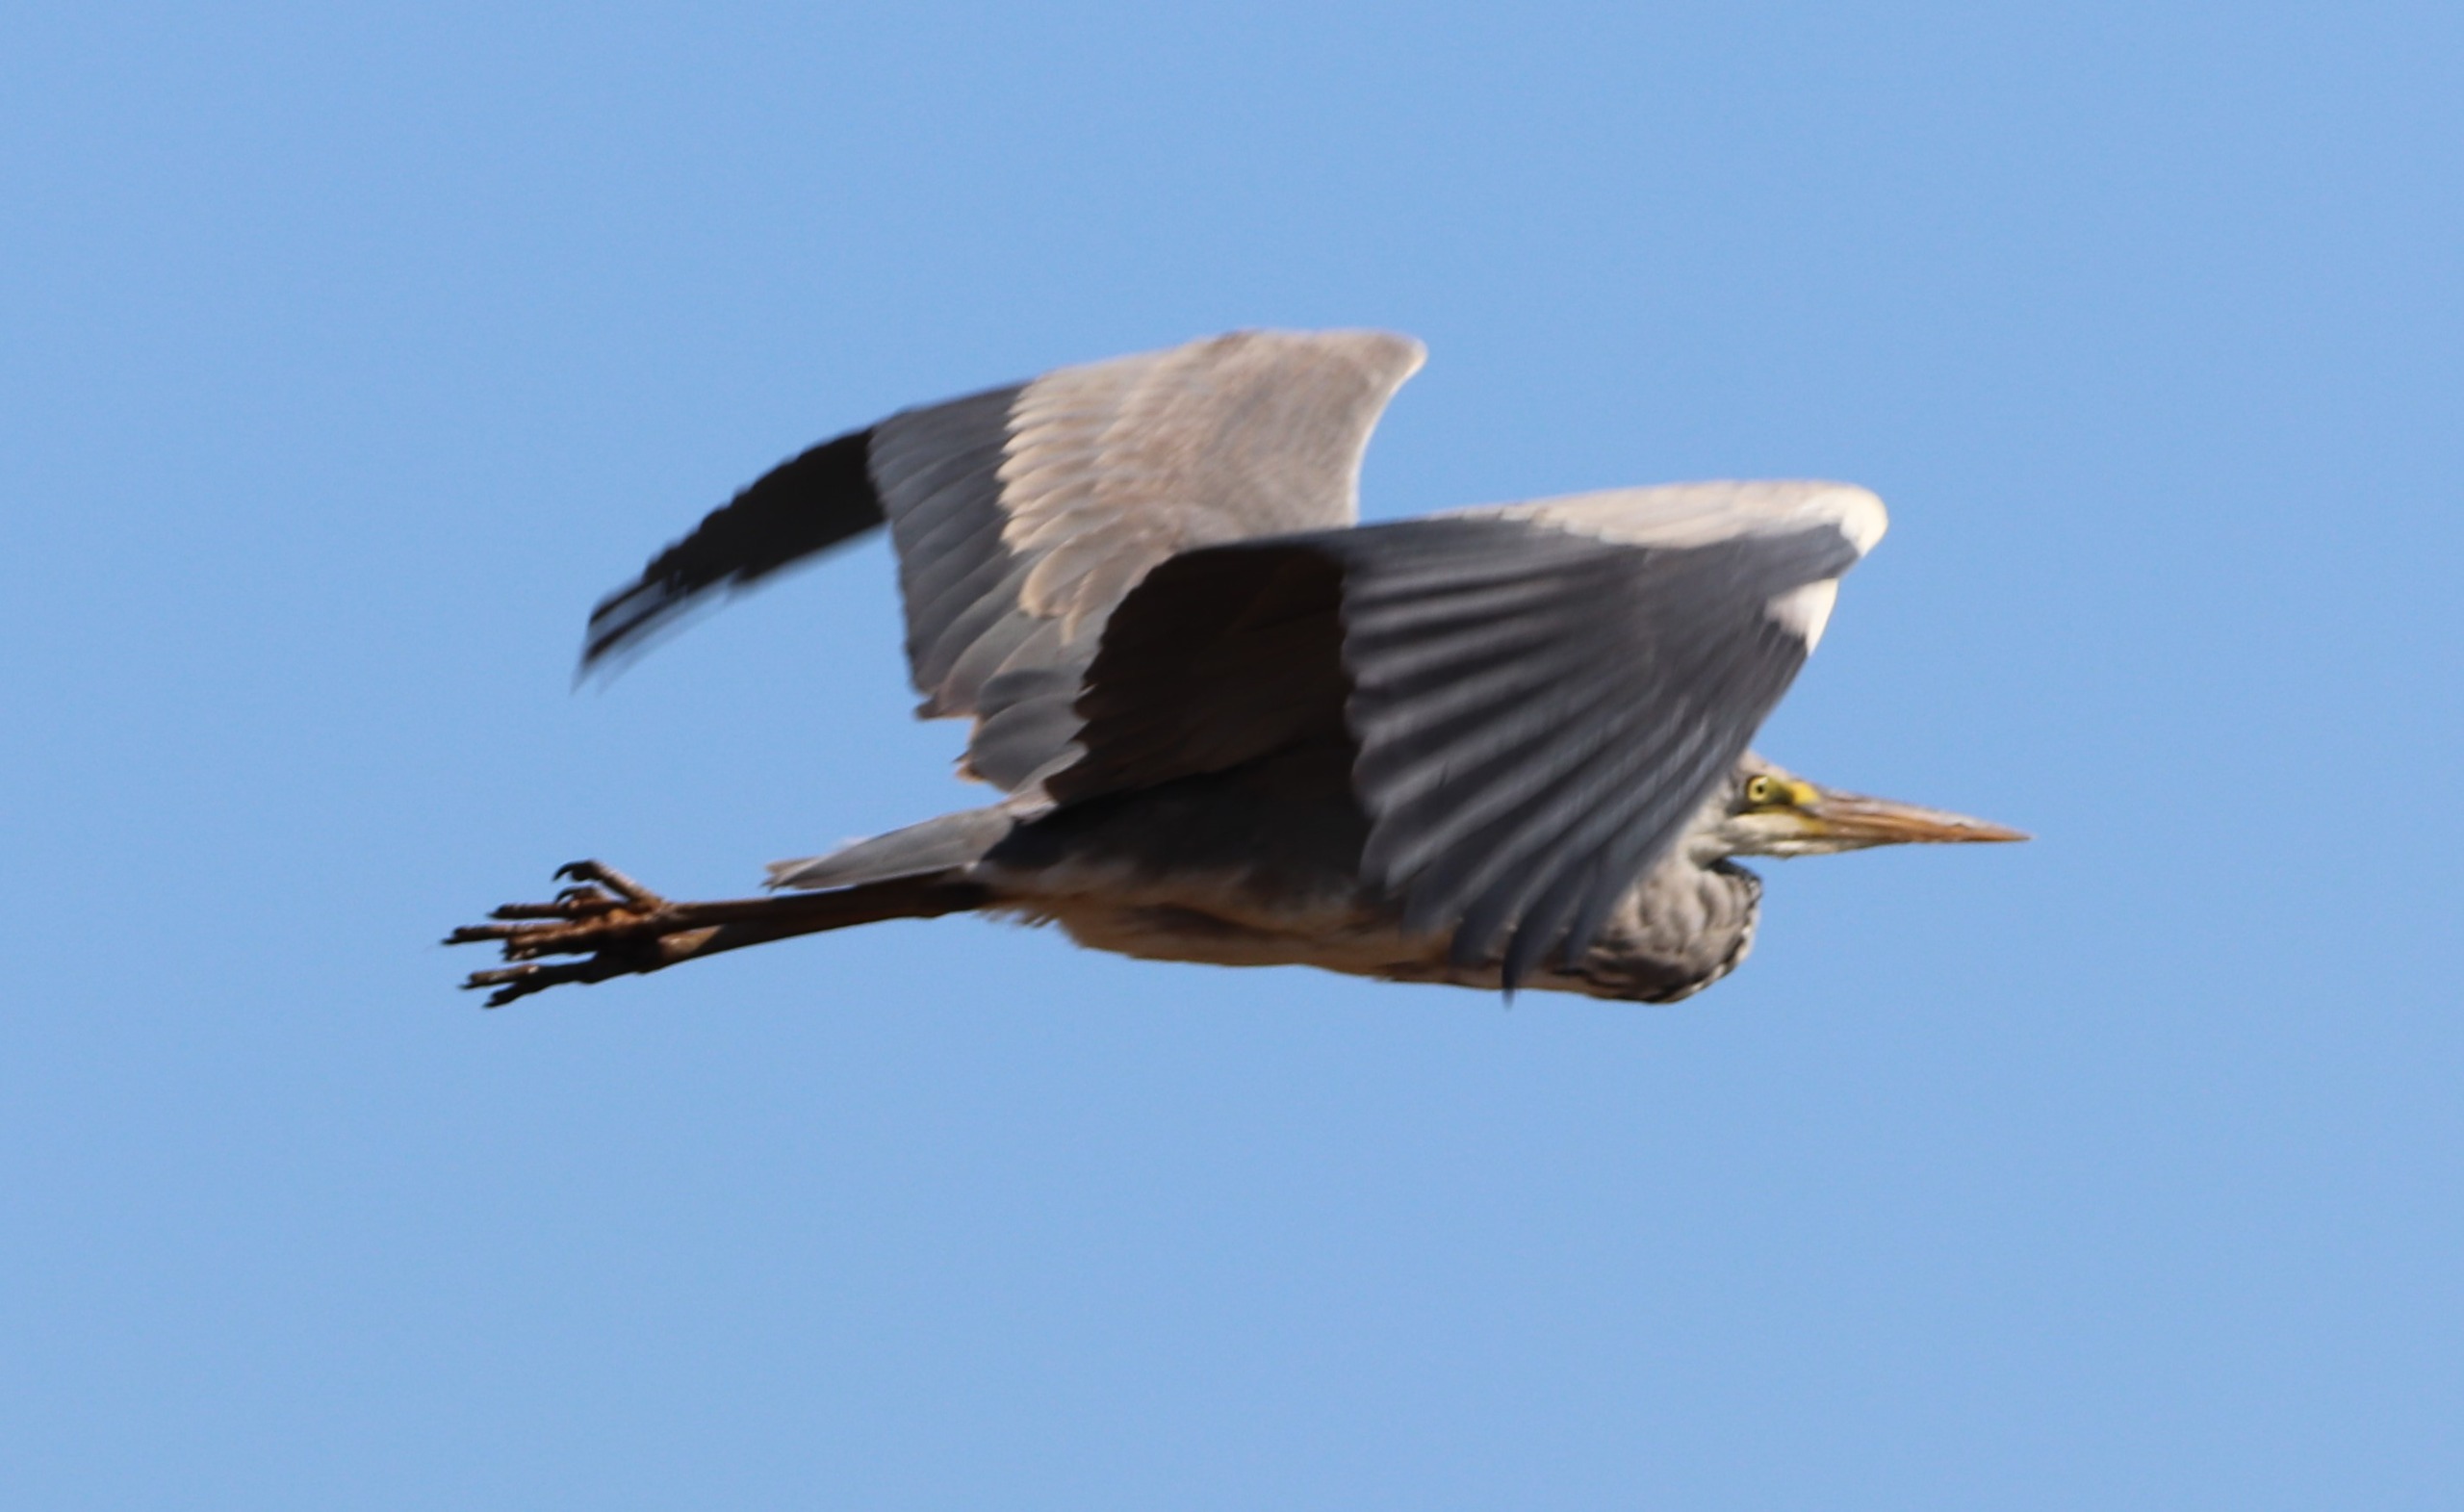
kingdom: Animalia
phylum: Chordata
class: Aves
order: Pelecaniformes
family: Ardeidae
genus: Ardea
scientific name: Ardea cinerea
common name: Fiskehejre
